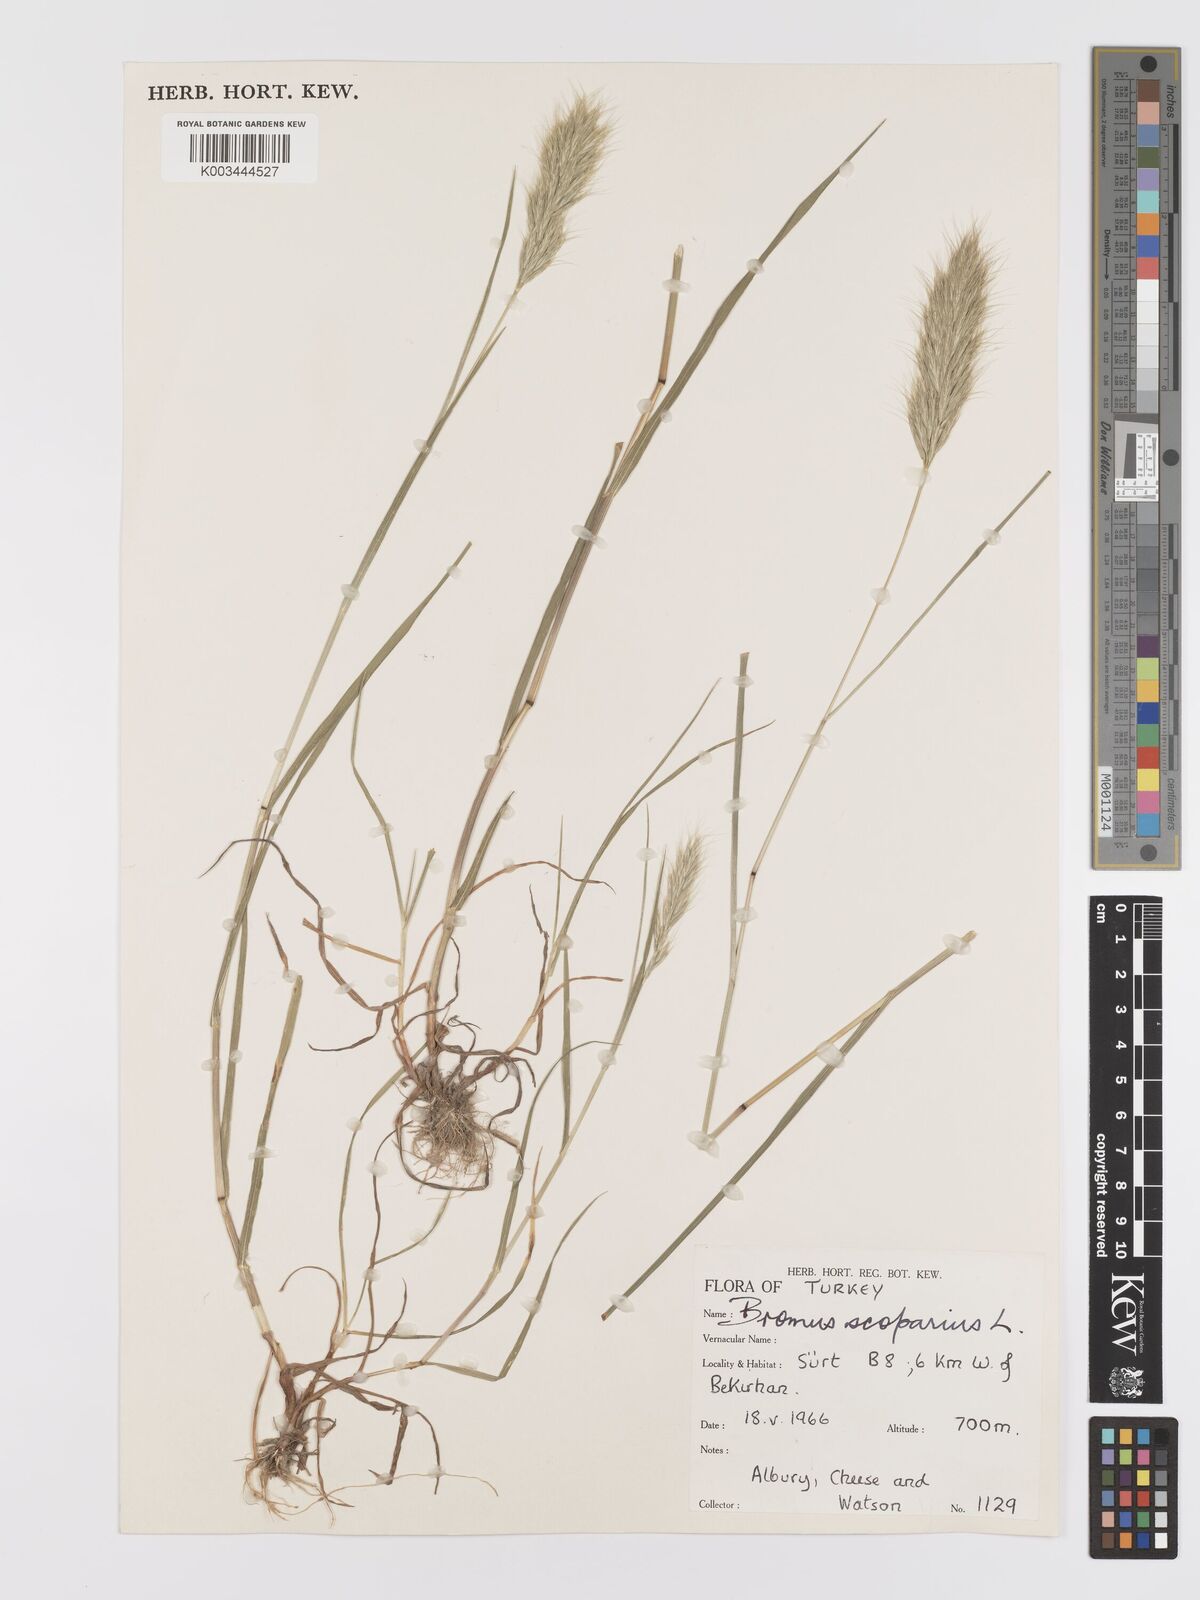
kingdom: Plantae
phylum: Tracheophyta
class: Liliopsida
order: Poales
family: Poaceae
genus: Bromus
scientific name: Bromus scoparius
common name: Broom brome
